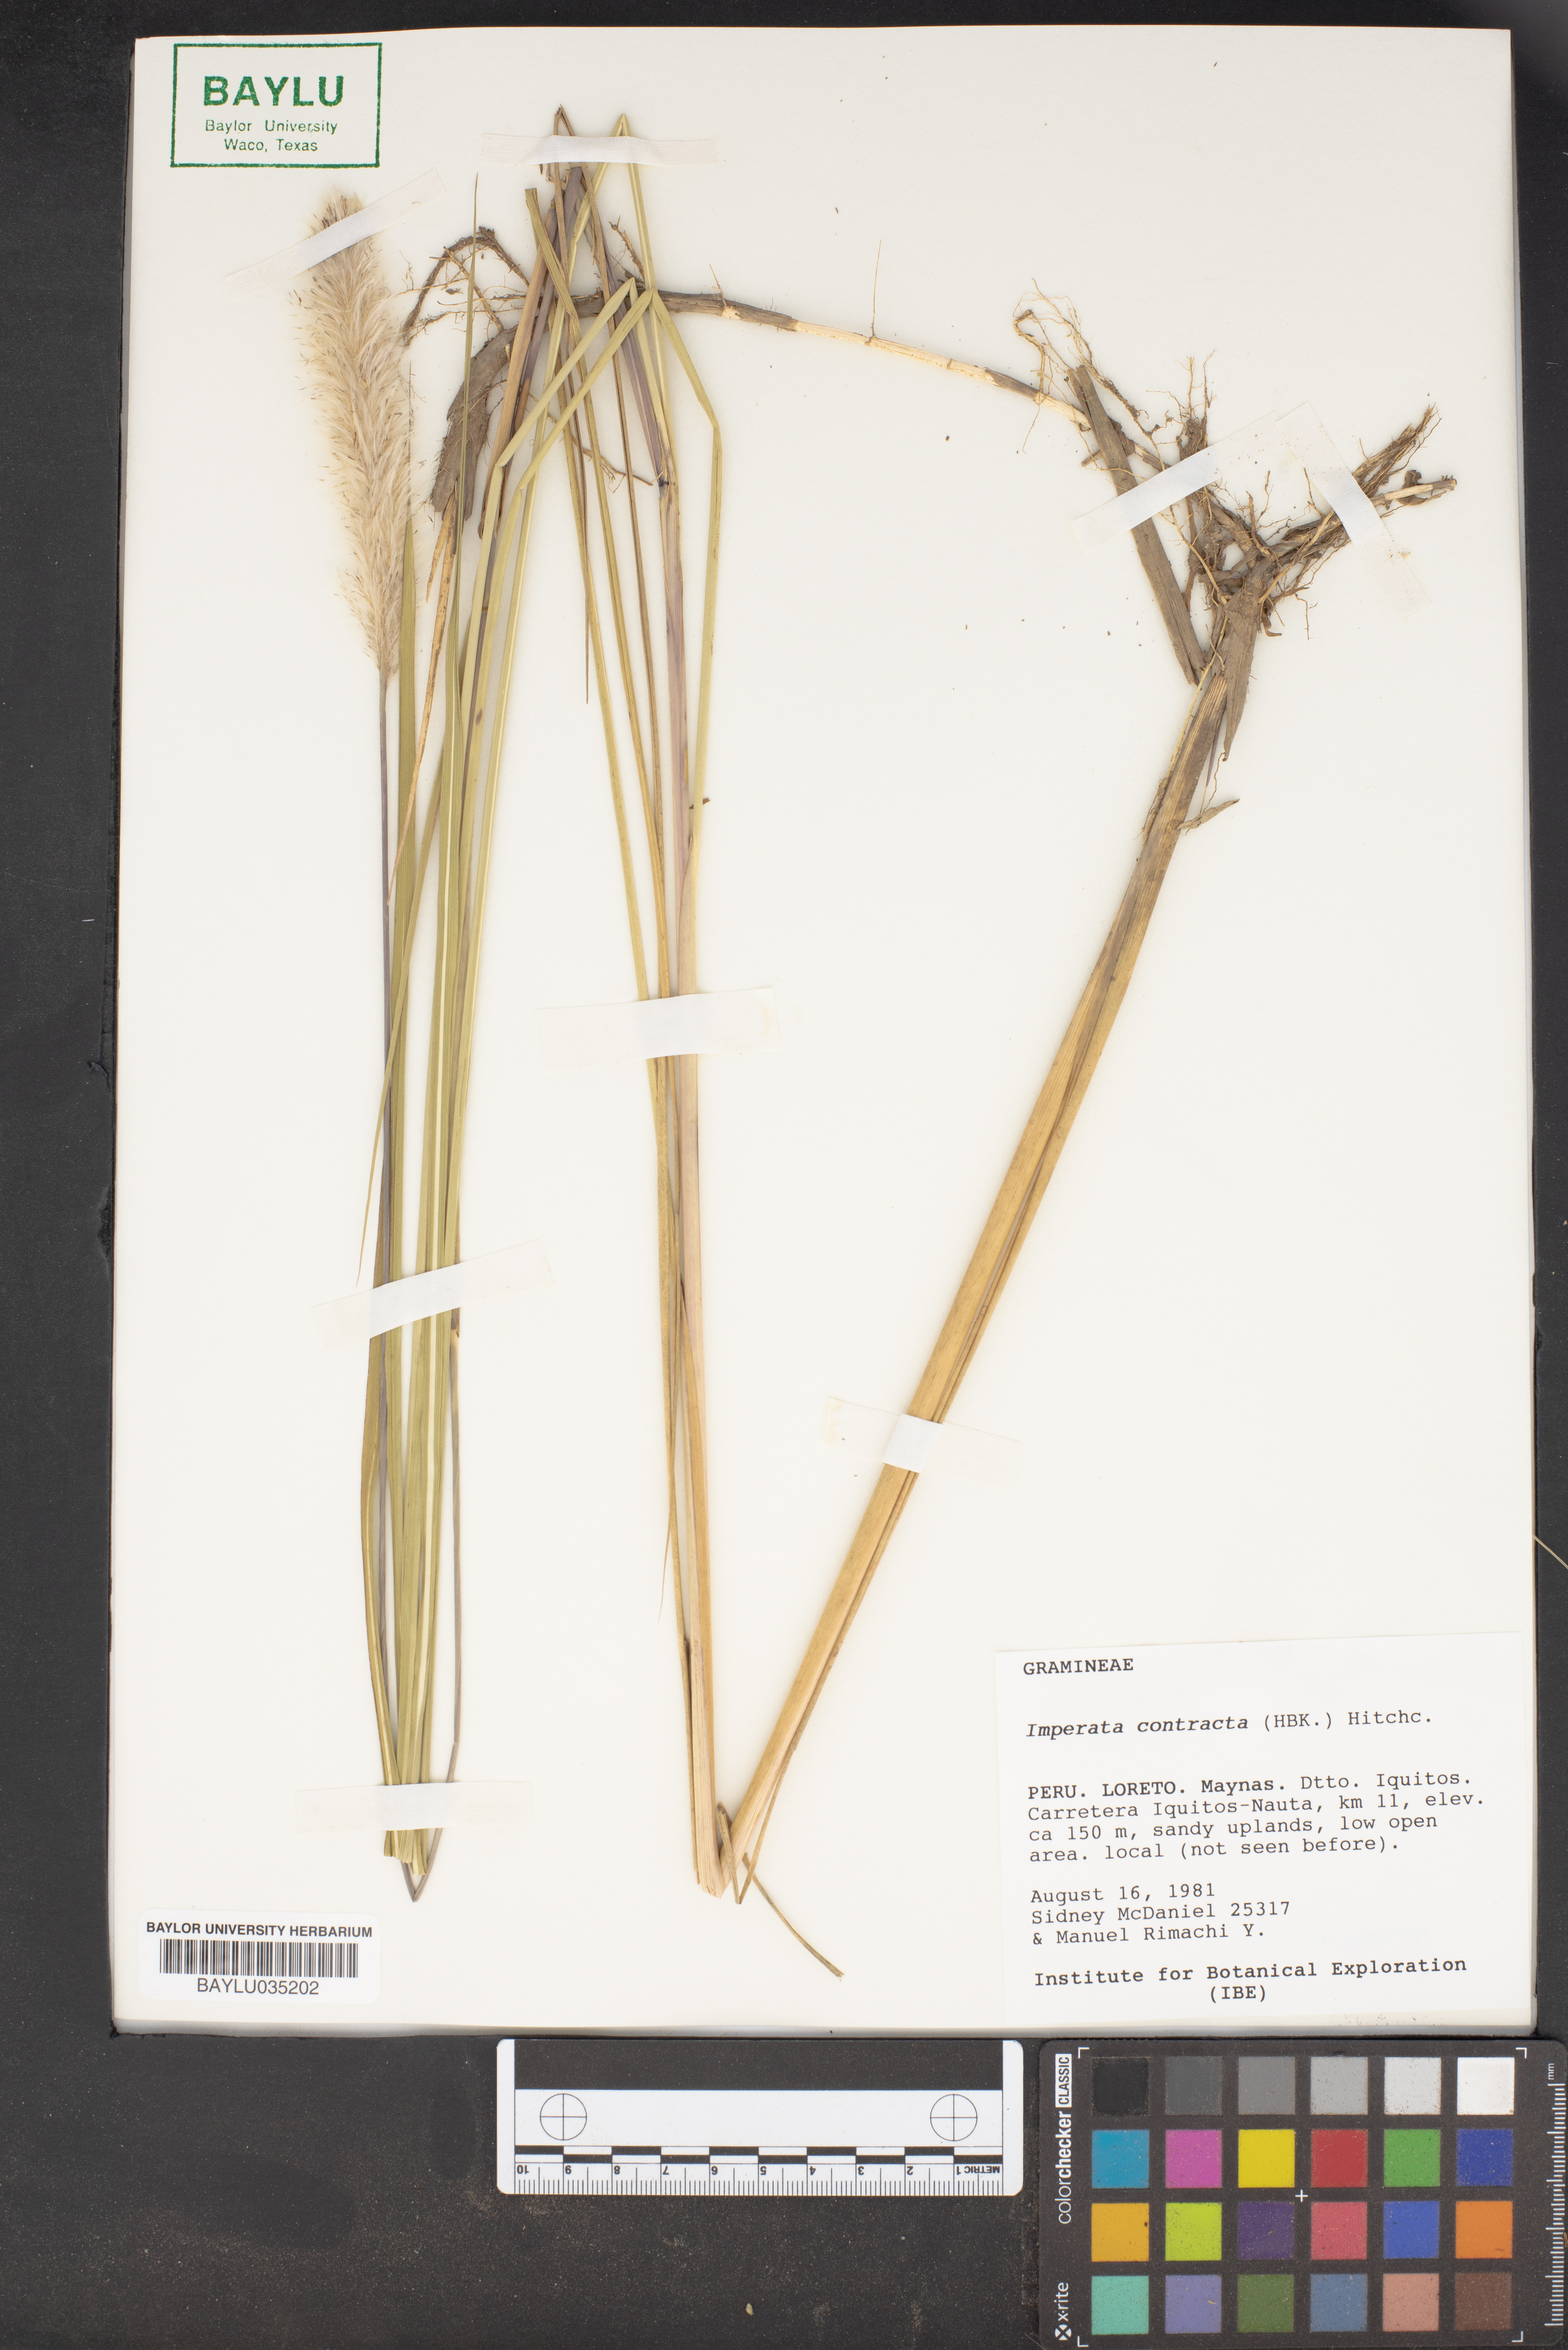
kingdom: Plantae
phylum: Tracheophyta
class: Liliopsida
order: Poales
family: Poaceae
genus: Imperata
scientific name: Imperata contracta
